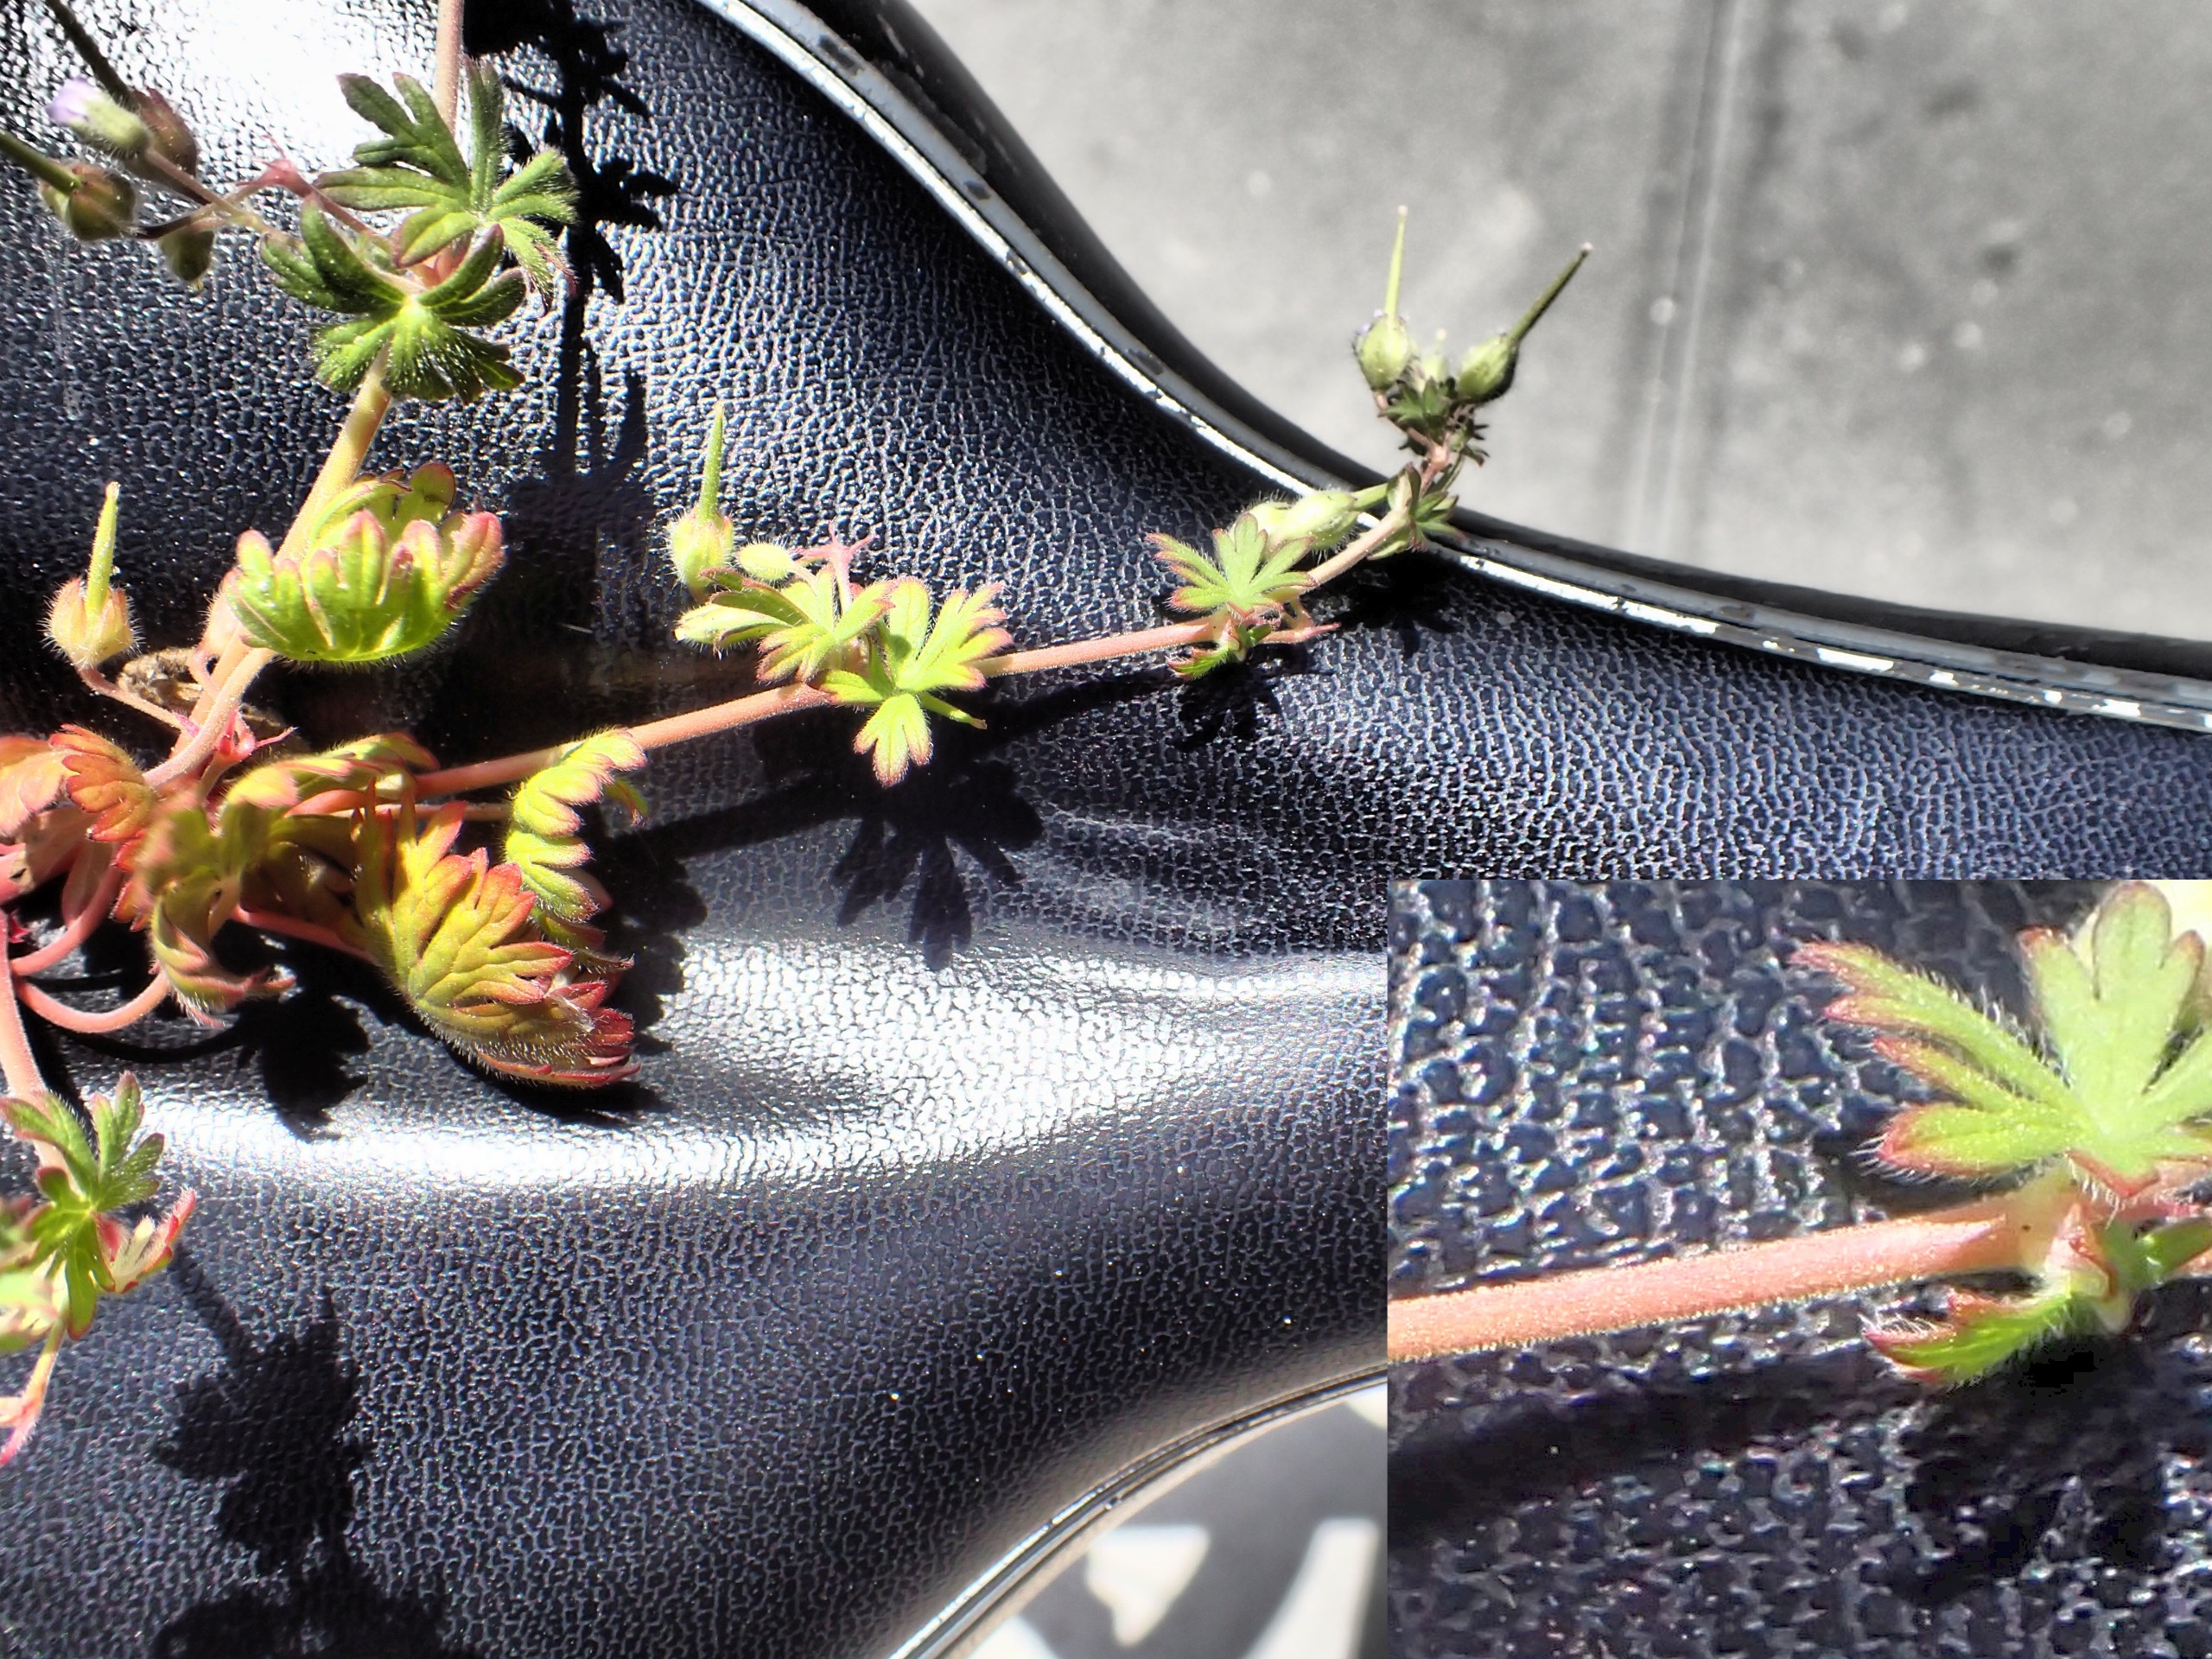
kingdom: Plantae
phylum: Tracheophyta
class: Magnoliopsida
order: Geraniales
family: Geraniaceae
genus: Geranium
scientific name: Geranium pusillum
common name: Liden storkenæb
